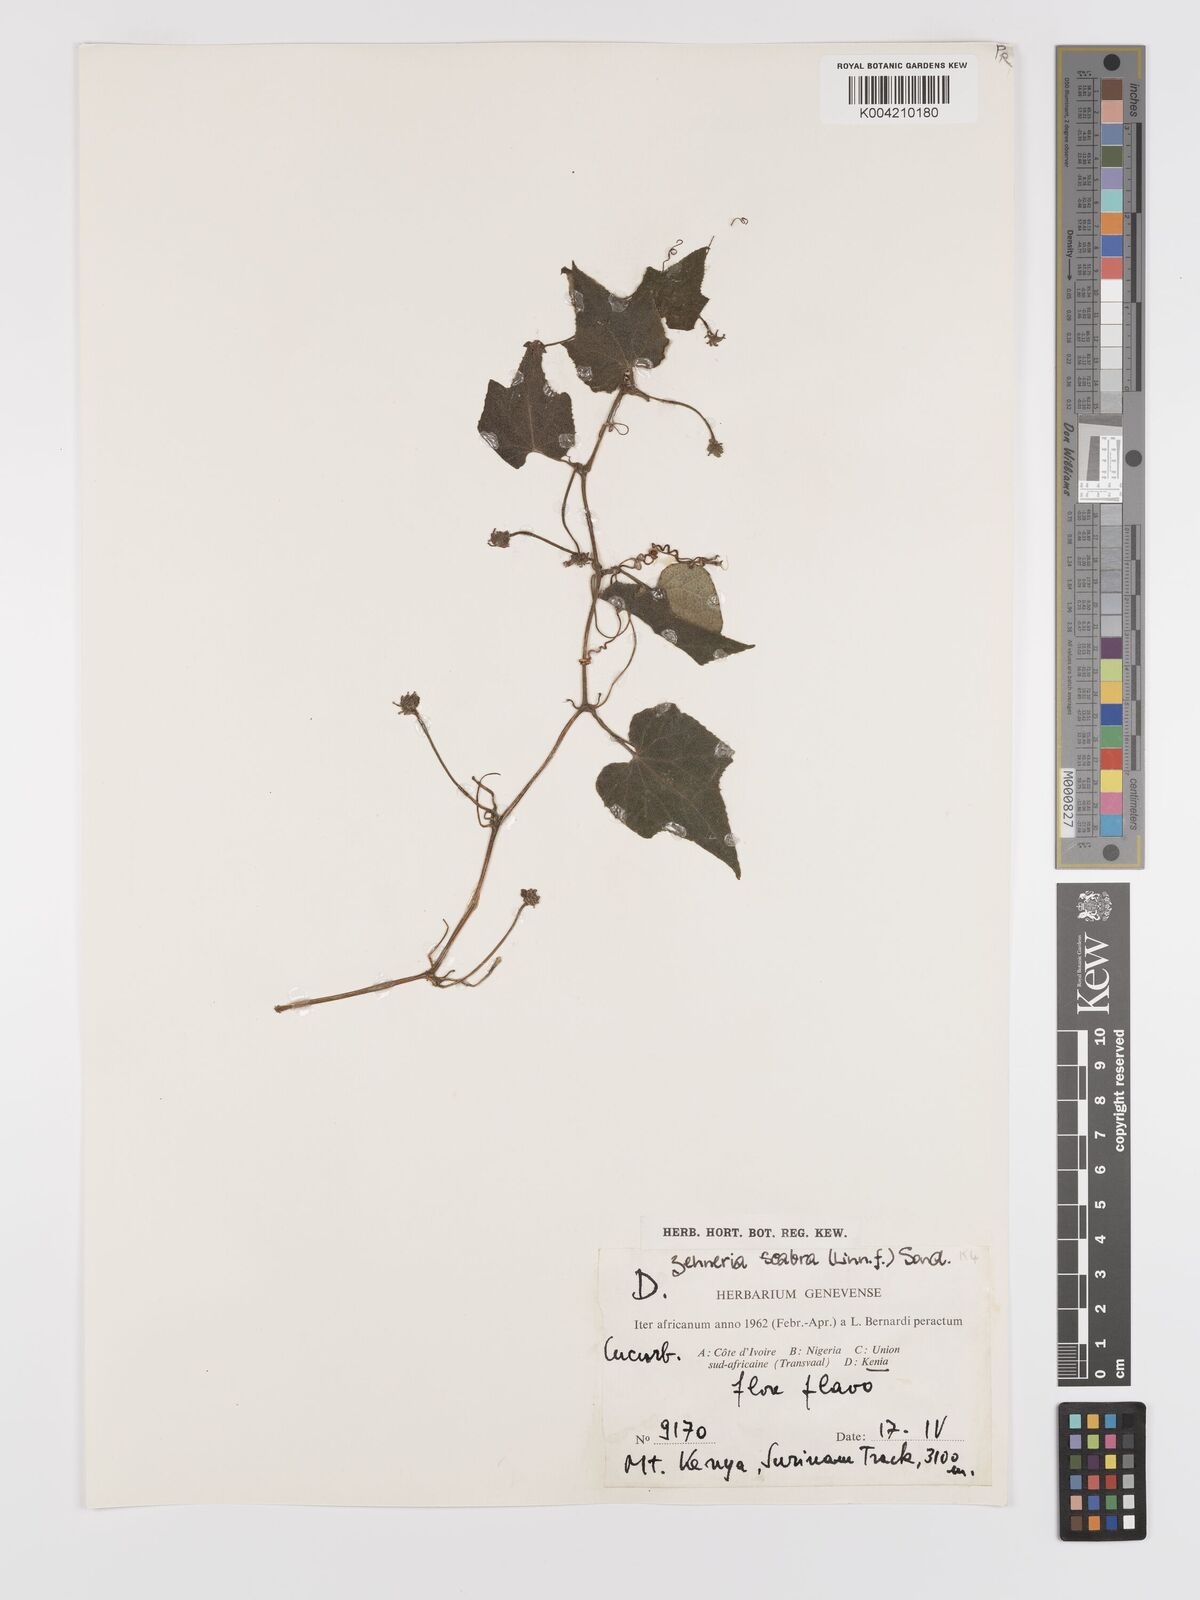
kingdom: Plantae
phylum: Tracheophyta
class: Magnoliopsida
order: Cucurbitales
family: Cucurbitaceae
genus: Zehneria
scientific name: Zehneria scabra
